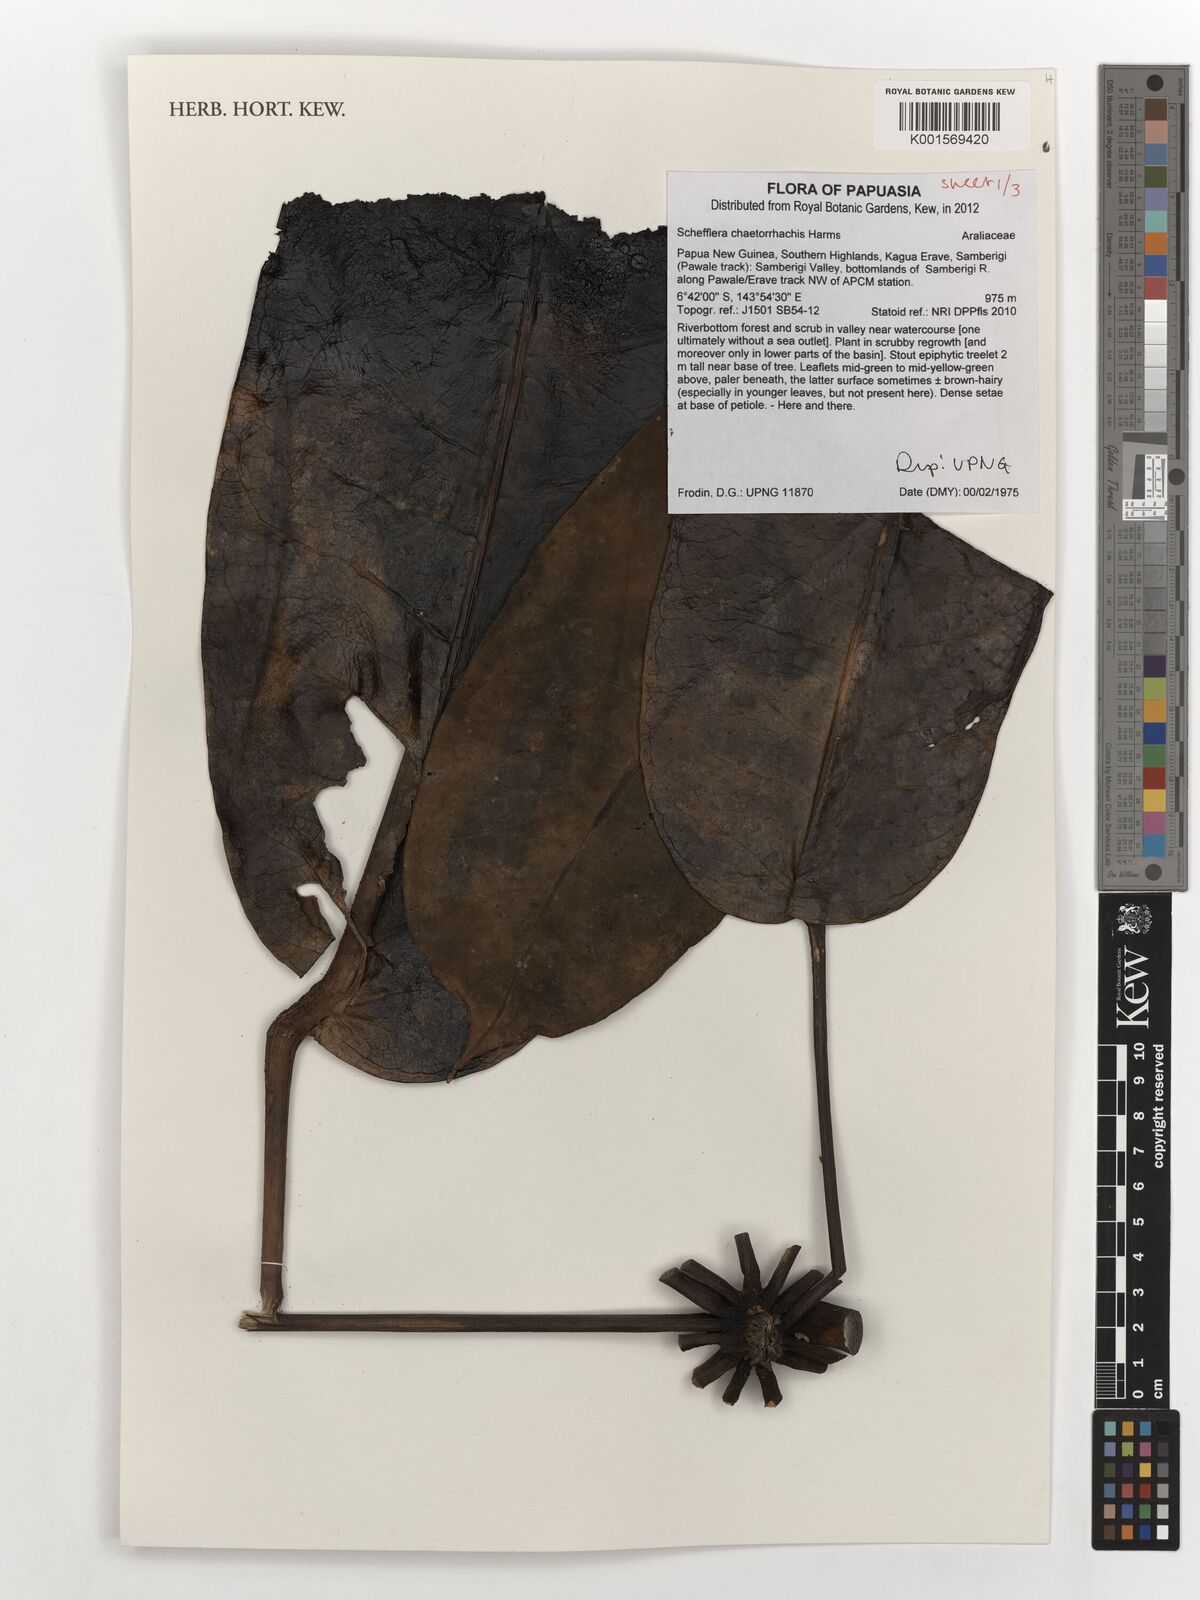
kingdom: Plantae
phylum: Tracheophyta
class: Magnoliopsida
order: Apiales
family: Araliaceae
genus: Heptapleurum
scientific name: Heptapleurum chaetorrhachis
